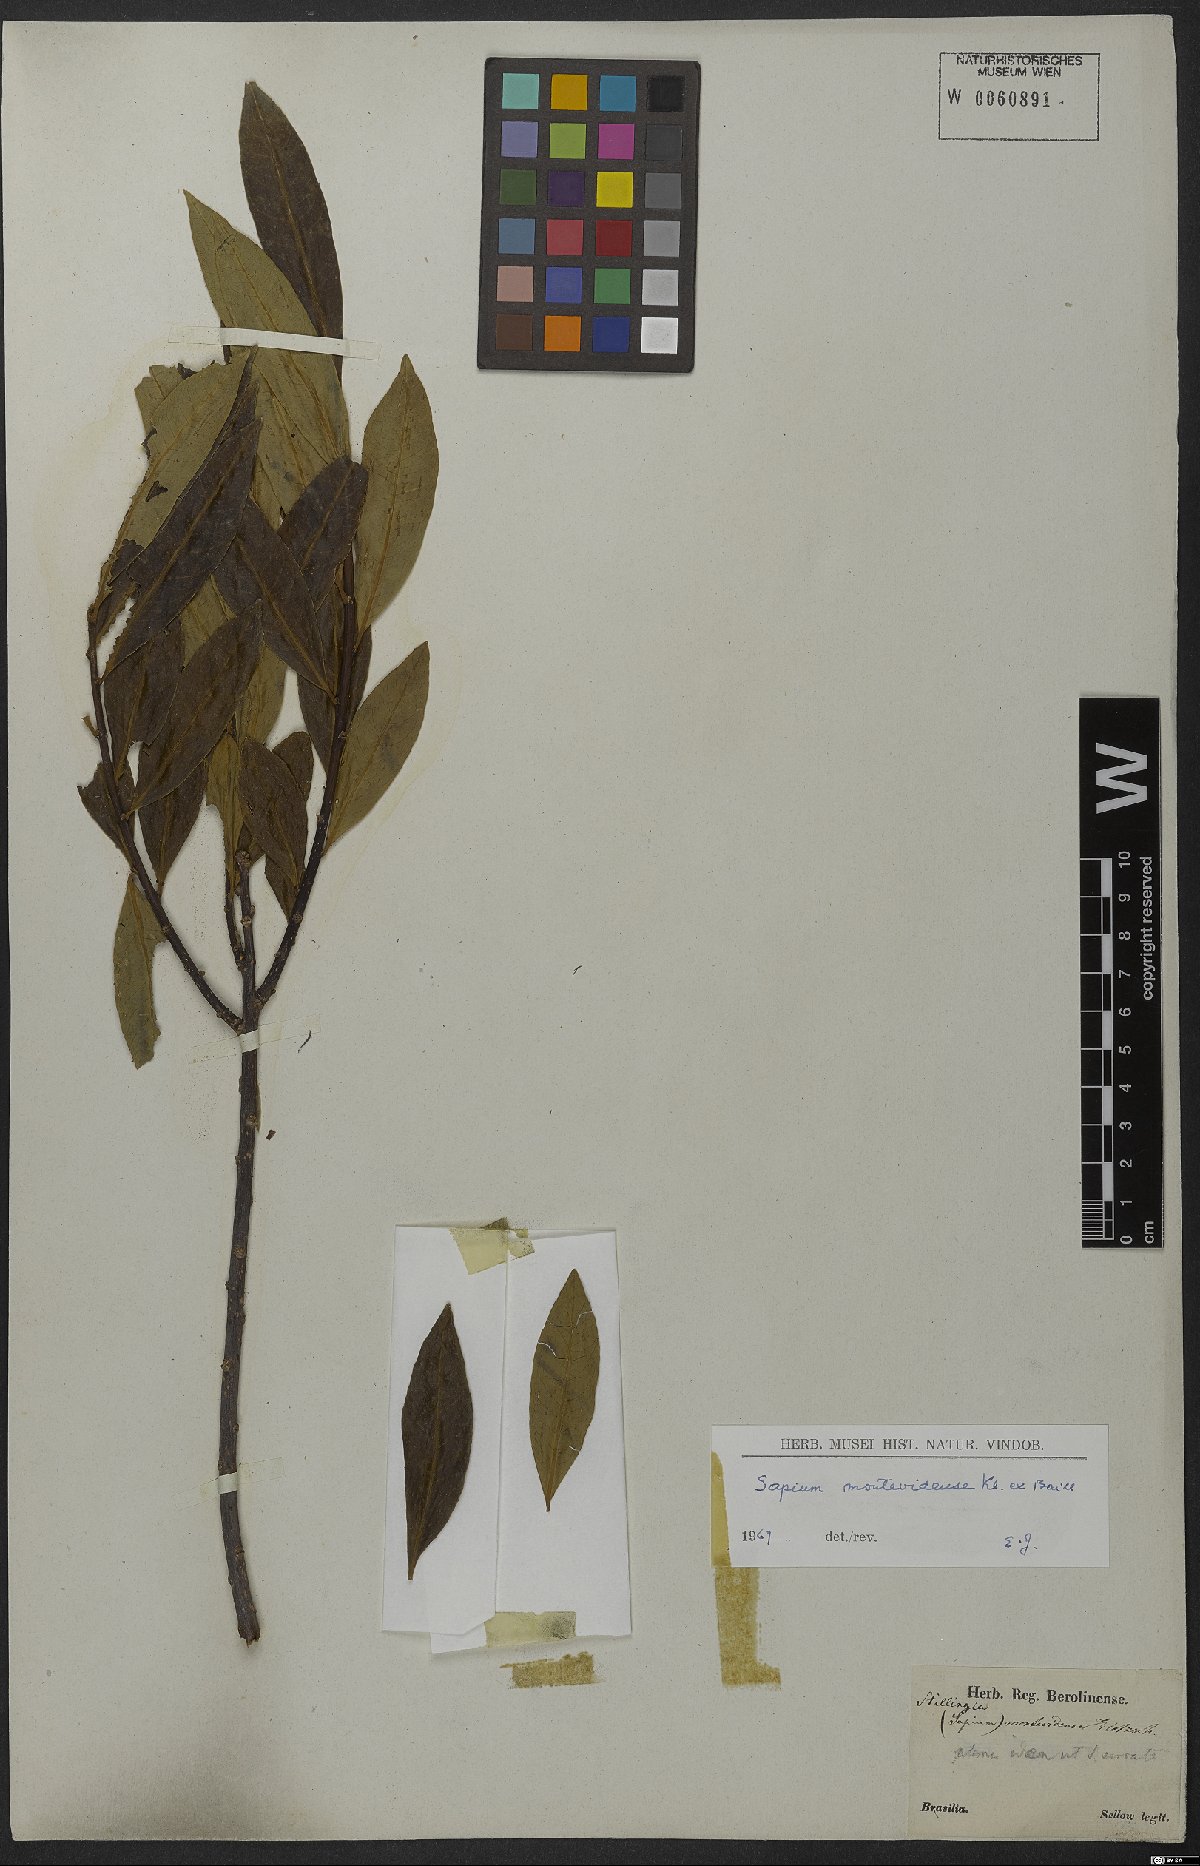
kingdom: Plantae
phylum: Tracheophyta
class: Magnoliopsida
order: Malpighiales
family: Euphorbiaceae
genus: Sapium
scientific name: Sapium glandulosum
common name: Milktree
